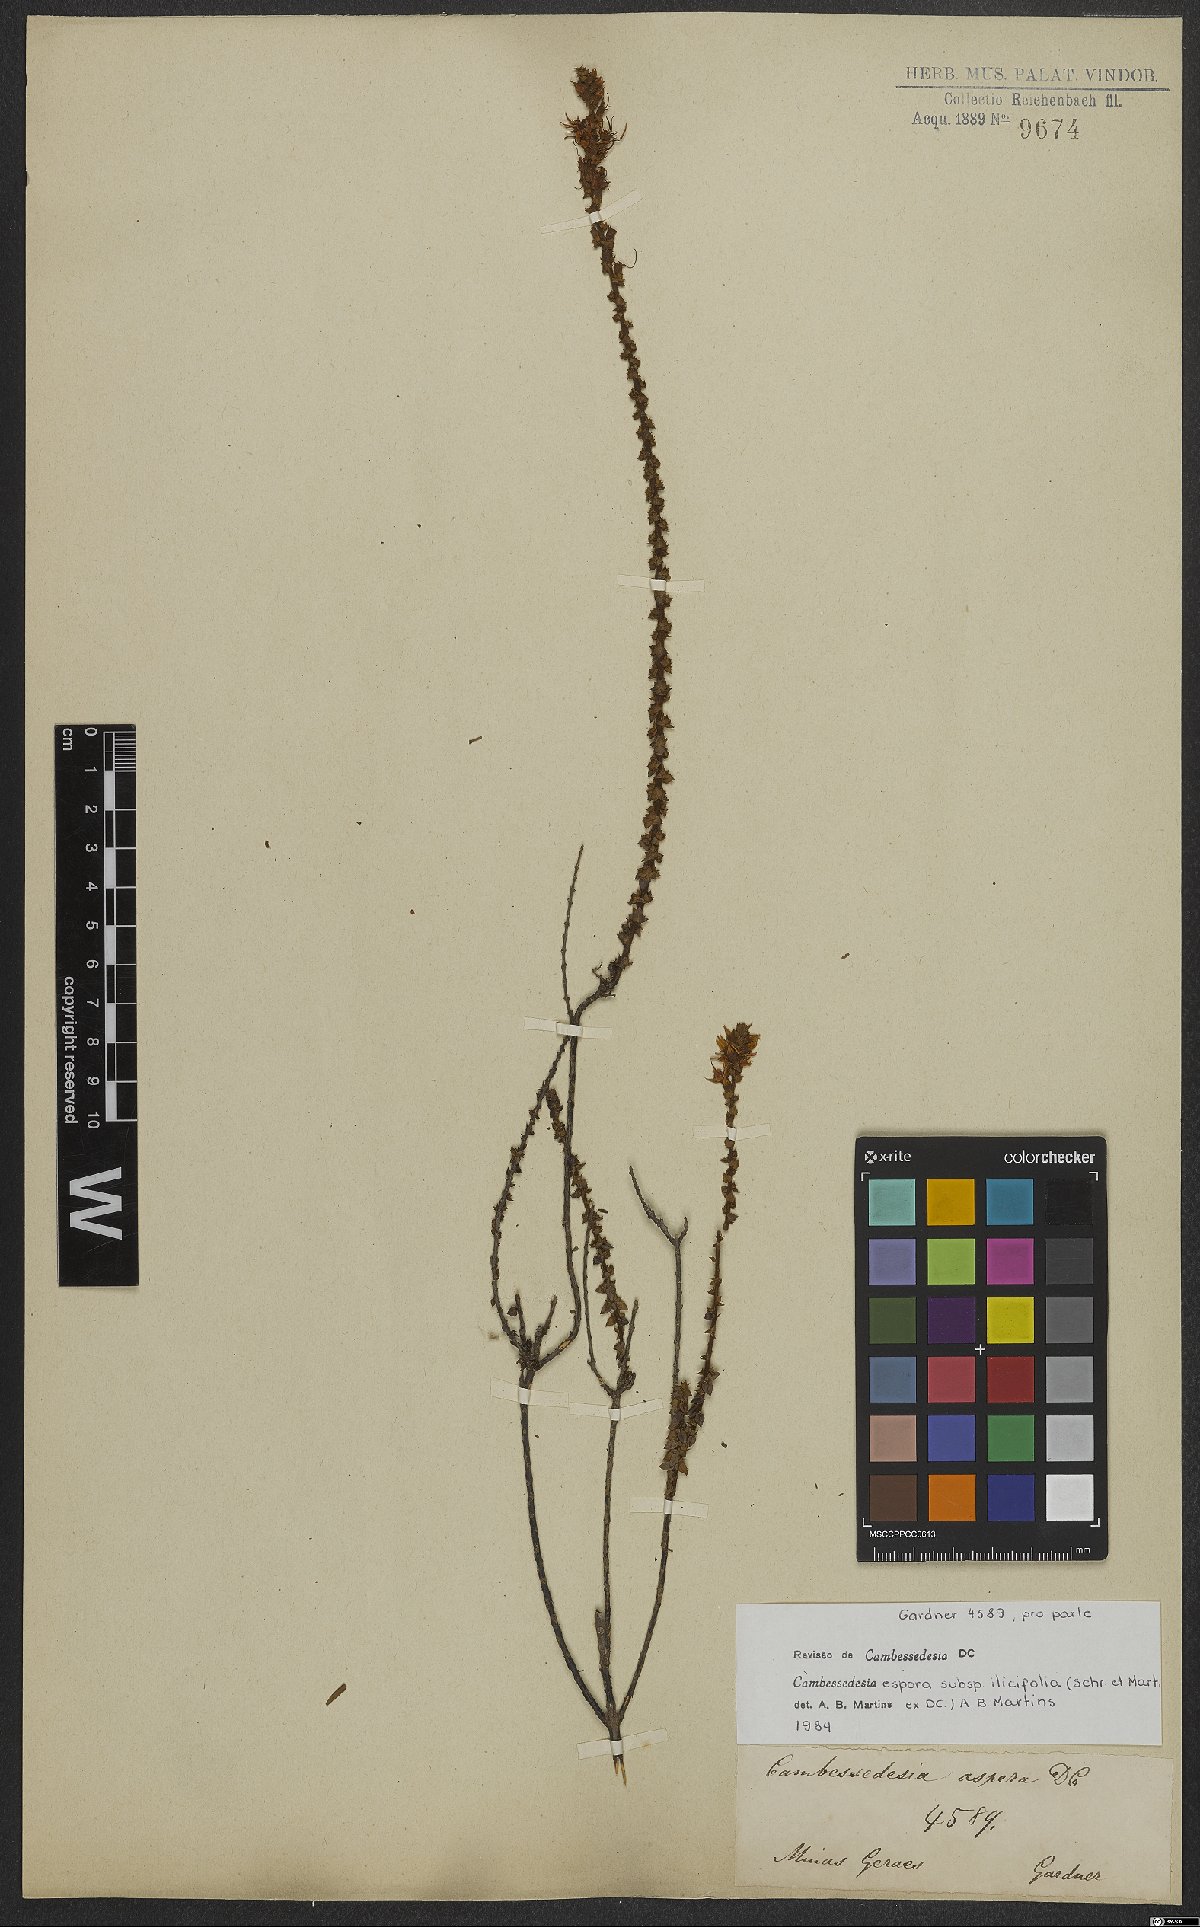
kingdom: Plantae
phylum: Tracheophyta
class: Magnoliopsida
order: Myrtales
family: Melastomataceae
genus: Cambessedesia
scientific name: Cambessedesia hilariana
